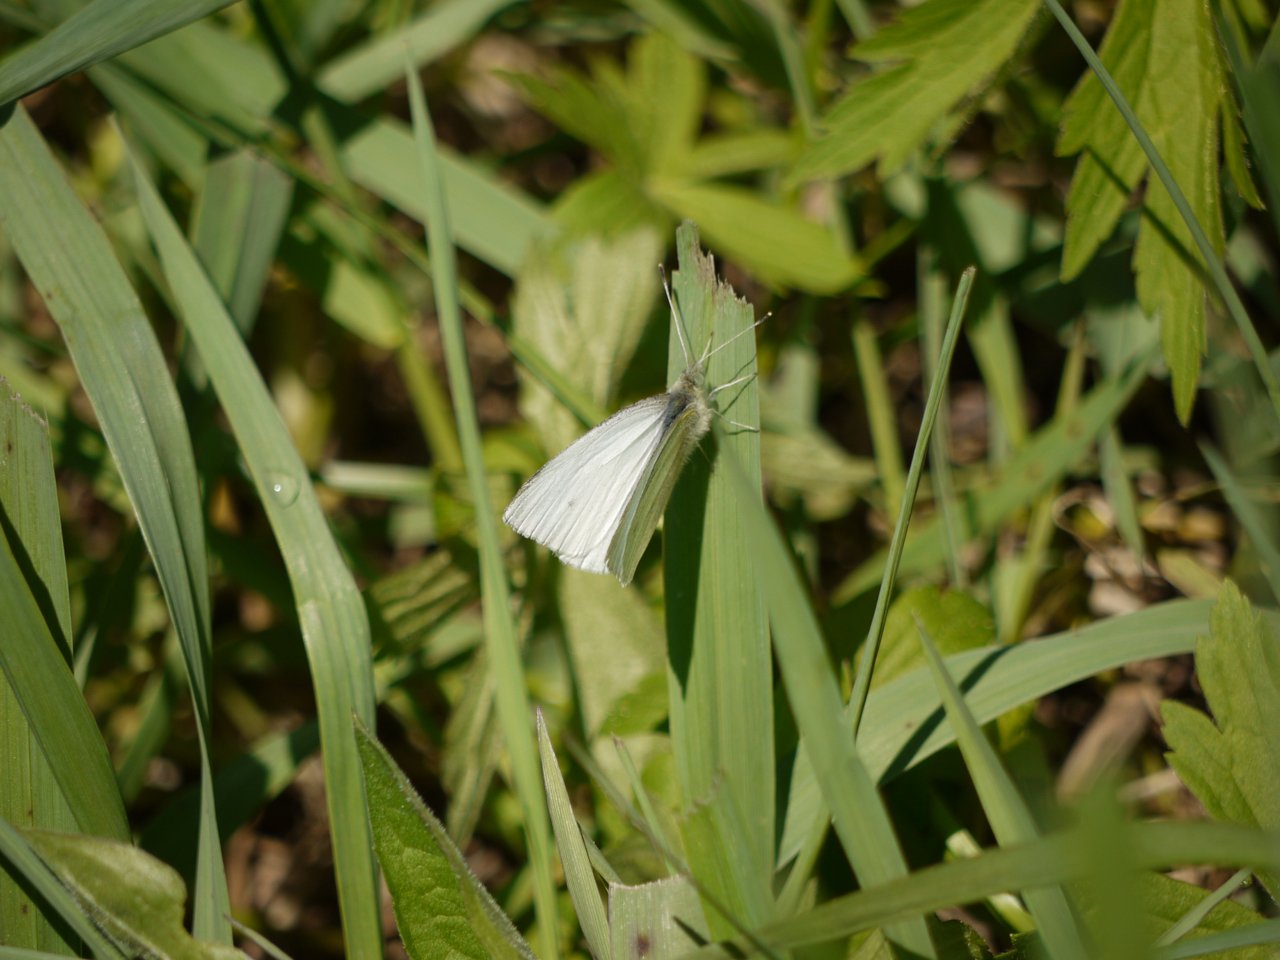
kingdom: Animalia
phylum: Arthropoda
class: Insecta
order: Lepidoptera
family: Pieridae
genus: Pieris
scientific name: Pieris oleracea
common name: Mustard White
